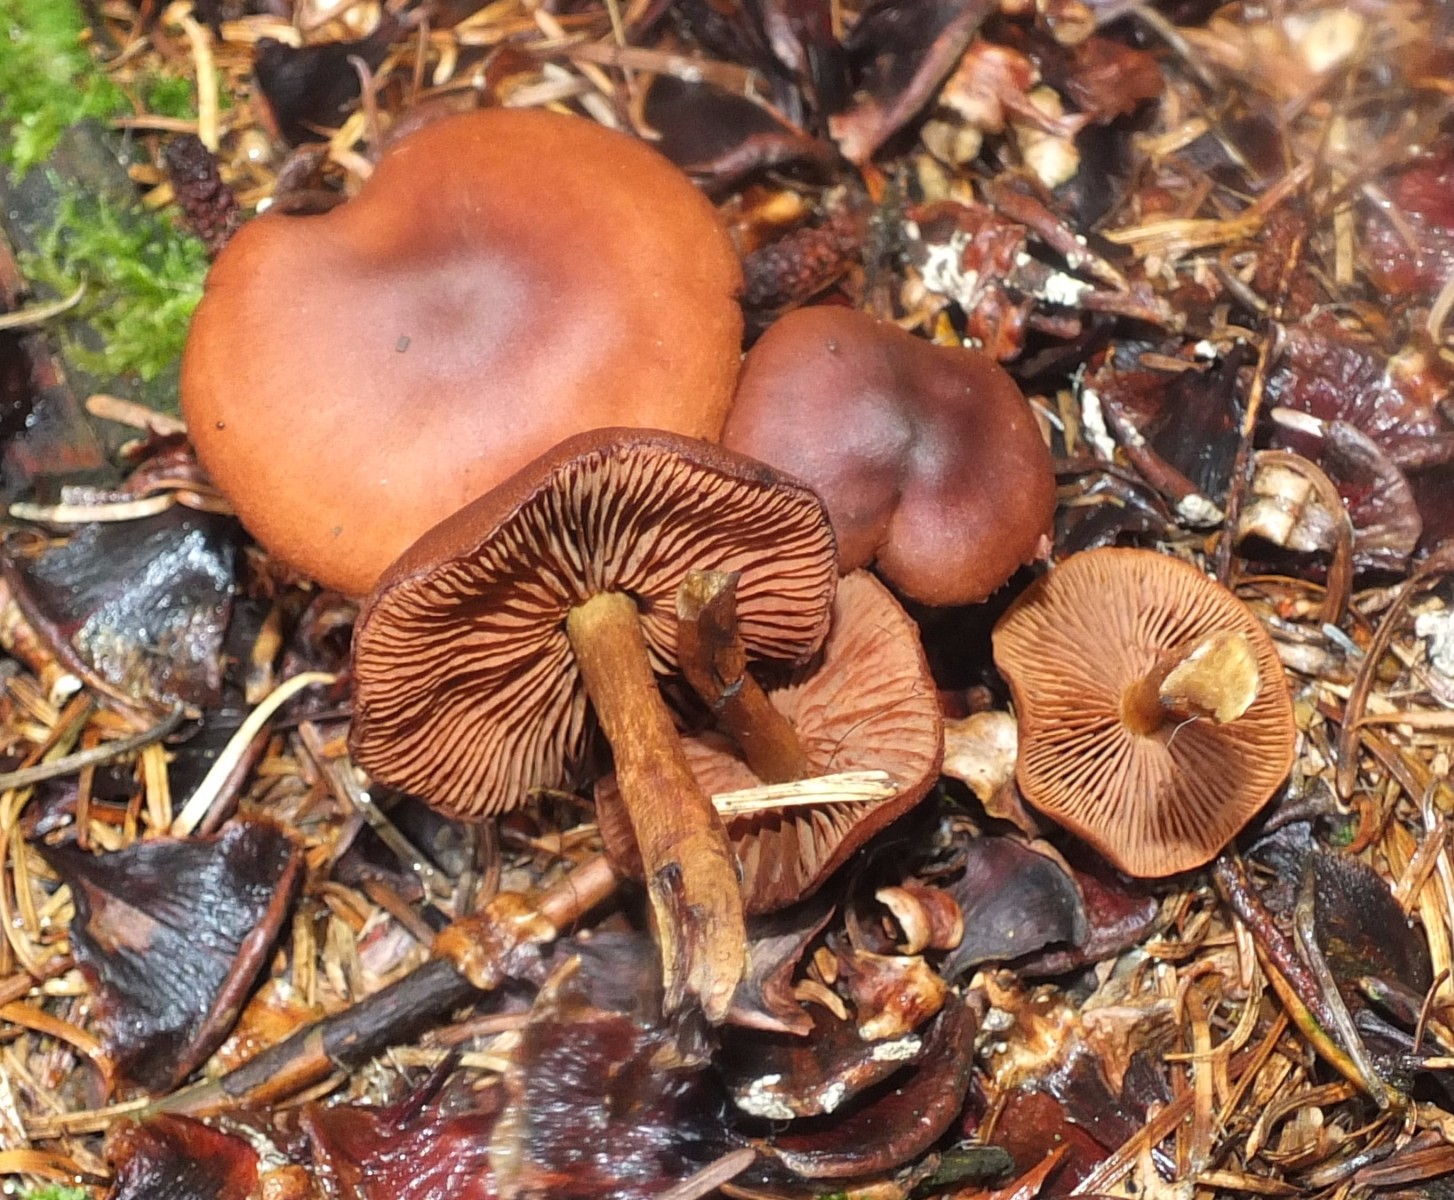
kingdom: Fungi
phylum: Basidiomycota
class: Agaricomycetes
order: Agaricales
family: Cortinariaceae
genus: Cortinarius
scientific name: Cortinarius
